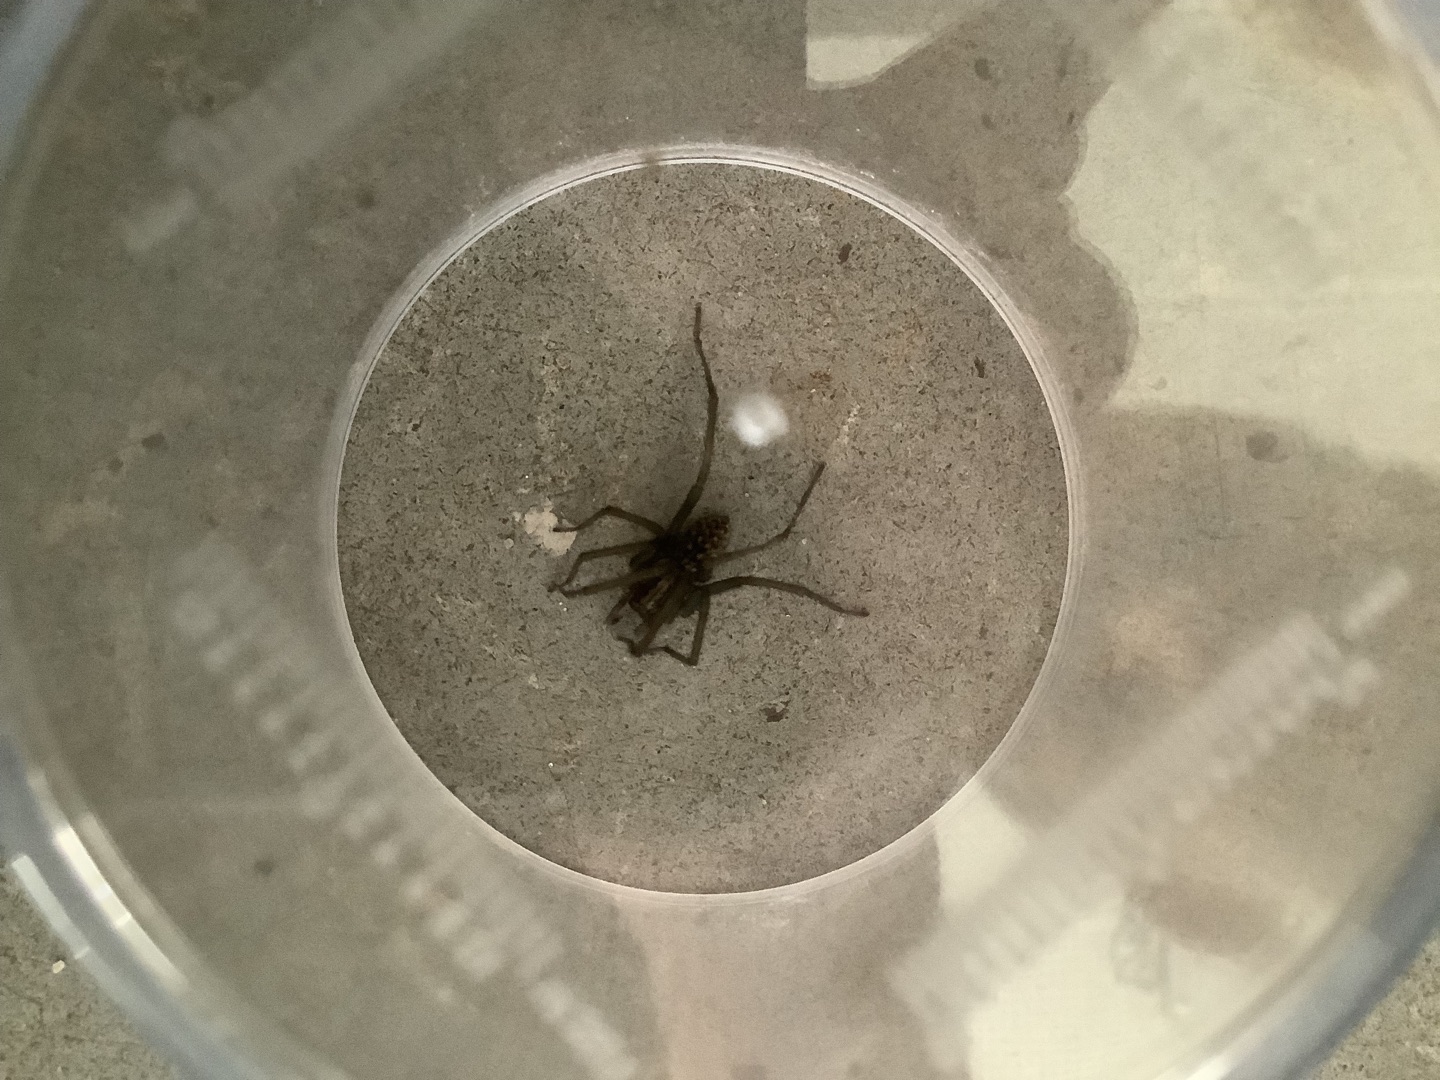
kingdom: Animalia
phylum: Arthropoda
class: Arachnida
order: Araneae
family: Agelenidae
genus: Eratigena
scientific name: Eratigena atrica
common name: Stor husedderkop
